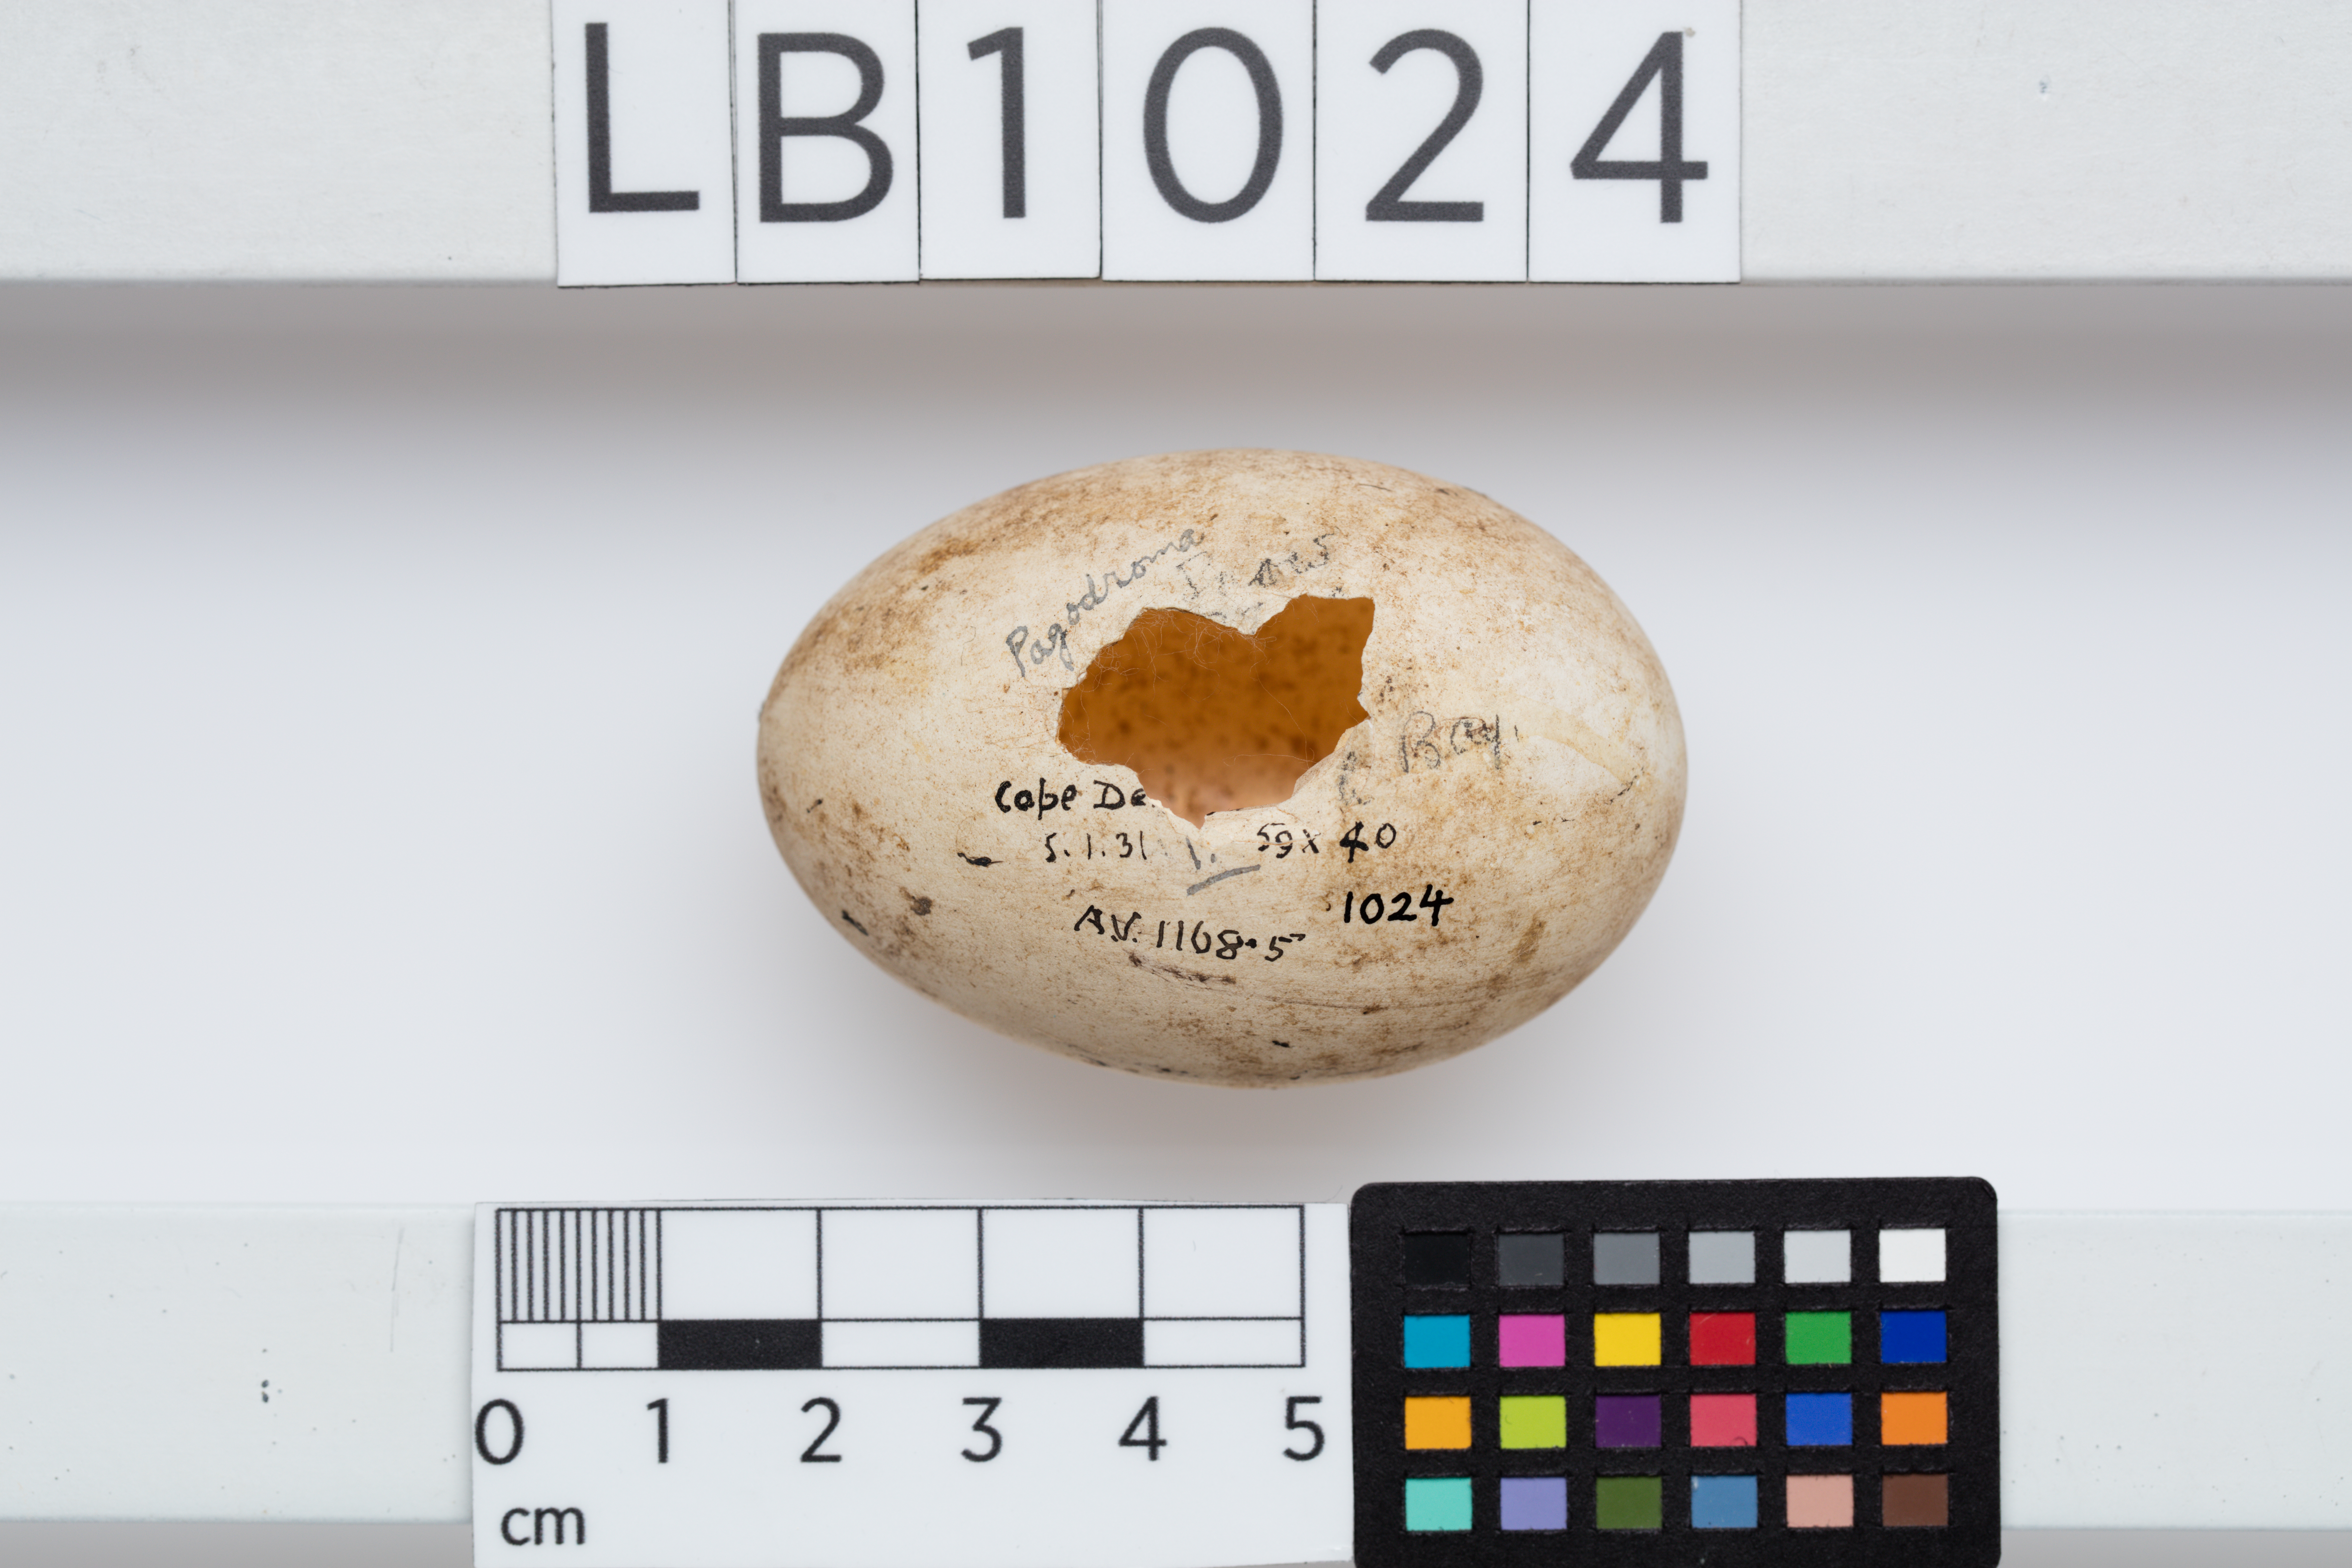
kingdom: Animalia
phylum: Chordata
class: Aves
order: Procellariiformes
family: Procellariidae
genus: Pagodroma
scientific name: Pagodroma nivea
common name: Snow petrel
